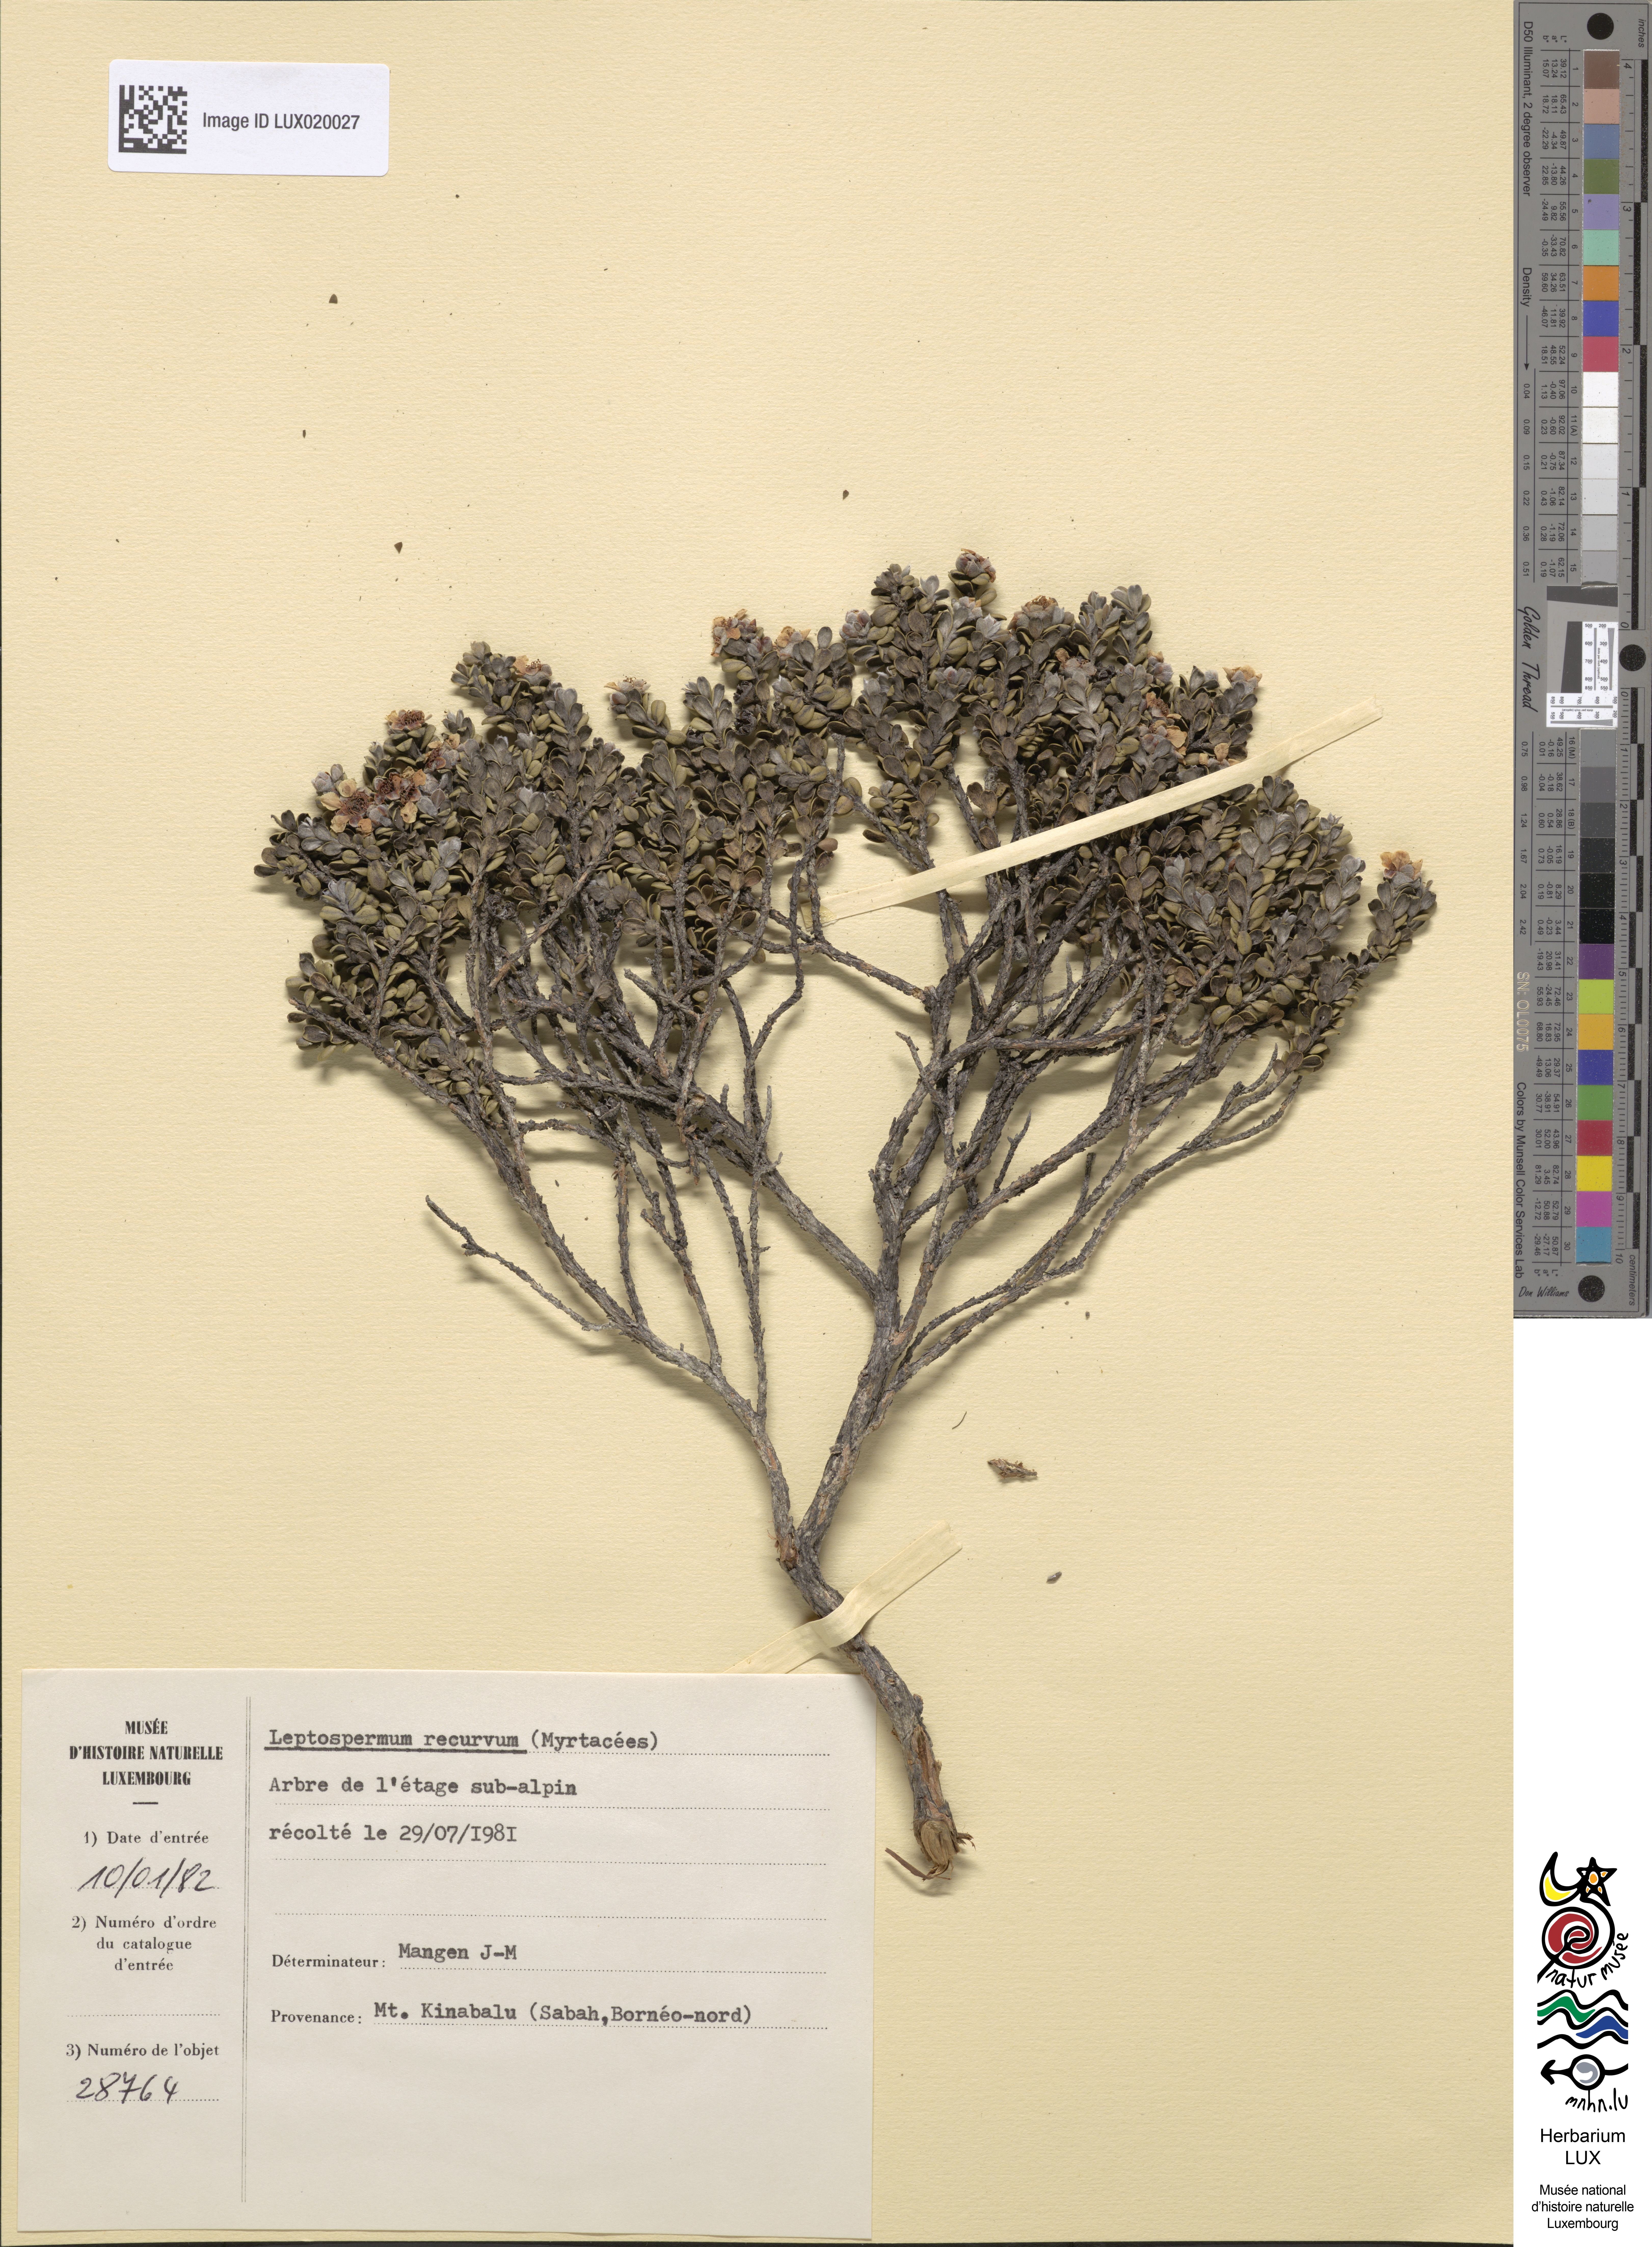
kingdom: Plantae
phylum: Tracheophyta
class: Magnoliopsida
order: Myrtales
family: Myrtaceae
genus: Leptospermum
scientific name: Leptospermum recurvum
